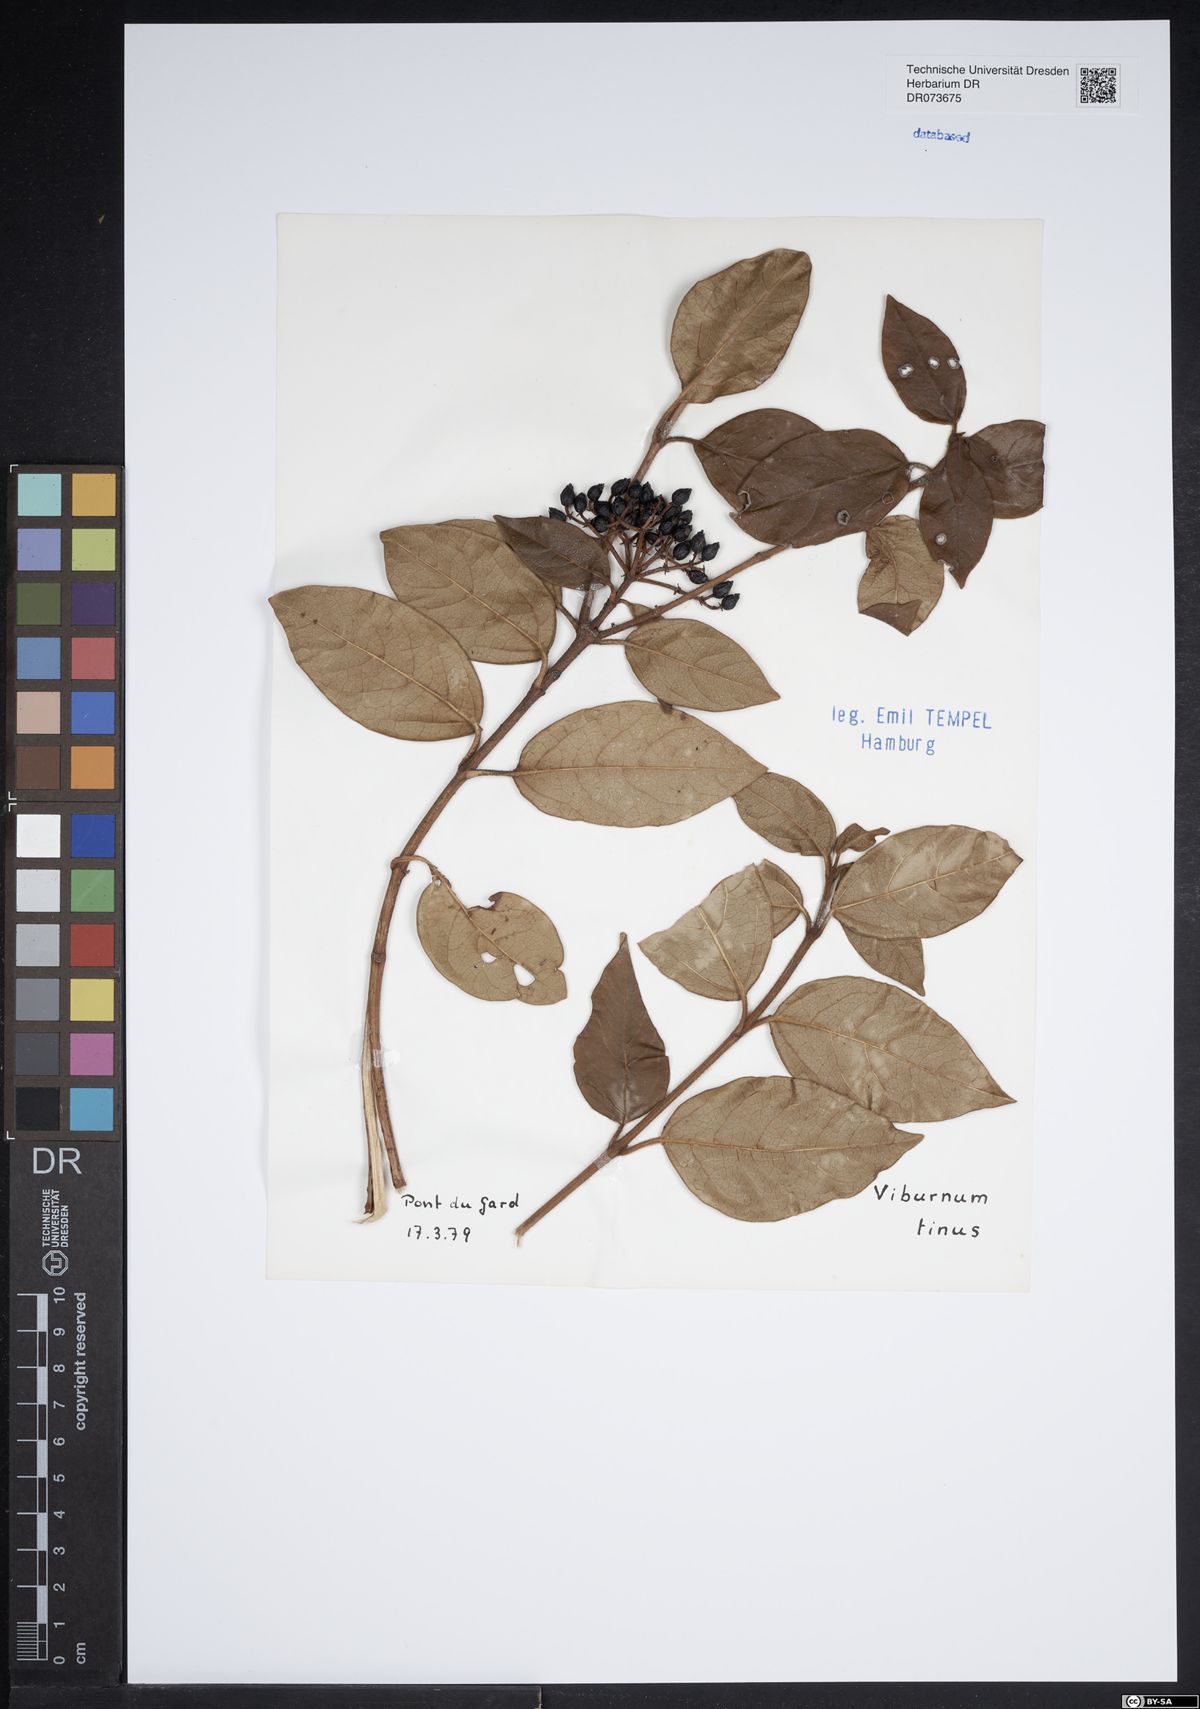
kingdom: Plantae
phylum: Tracheophyta
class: Magnoliopsida
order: Dipsacales
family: Viburnaceae
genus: Viburnum
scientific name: Viburnum tinus
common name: Laurustinus
